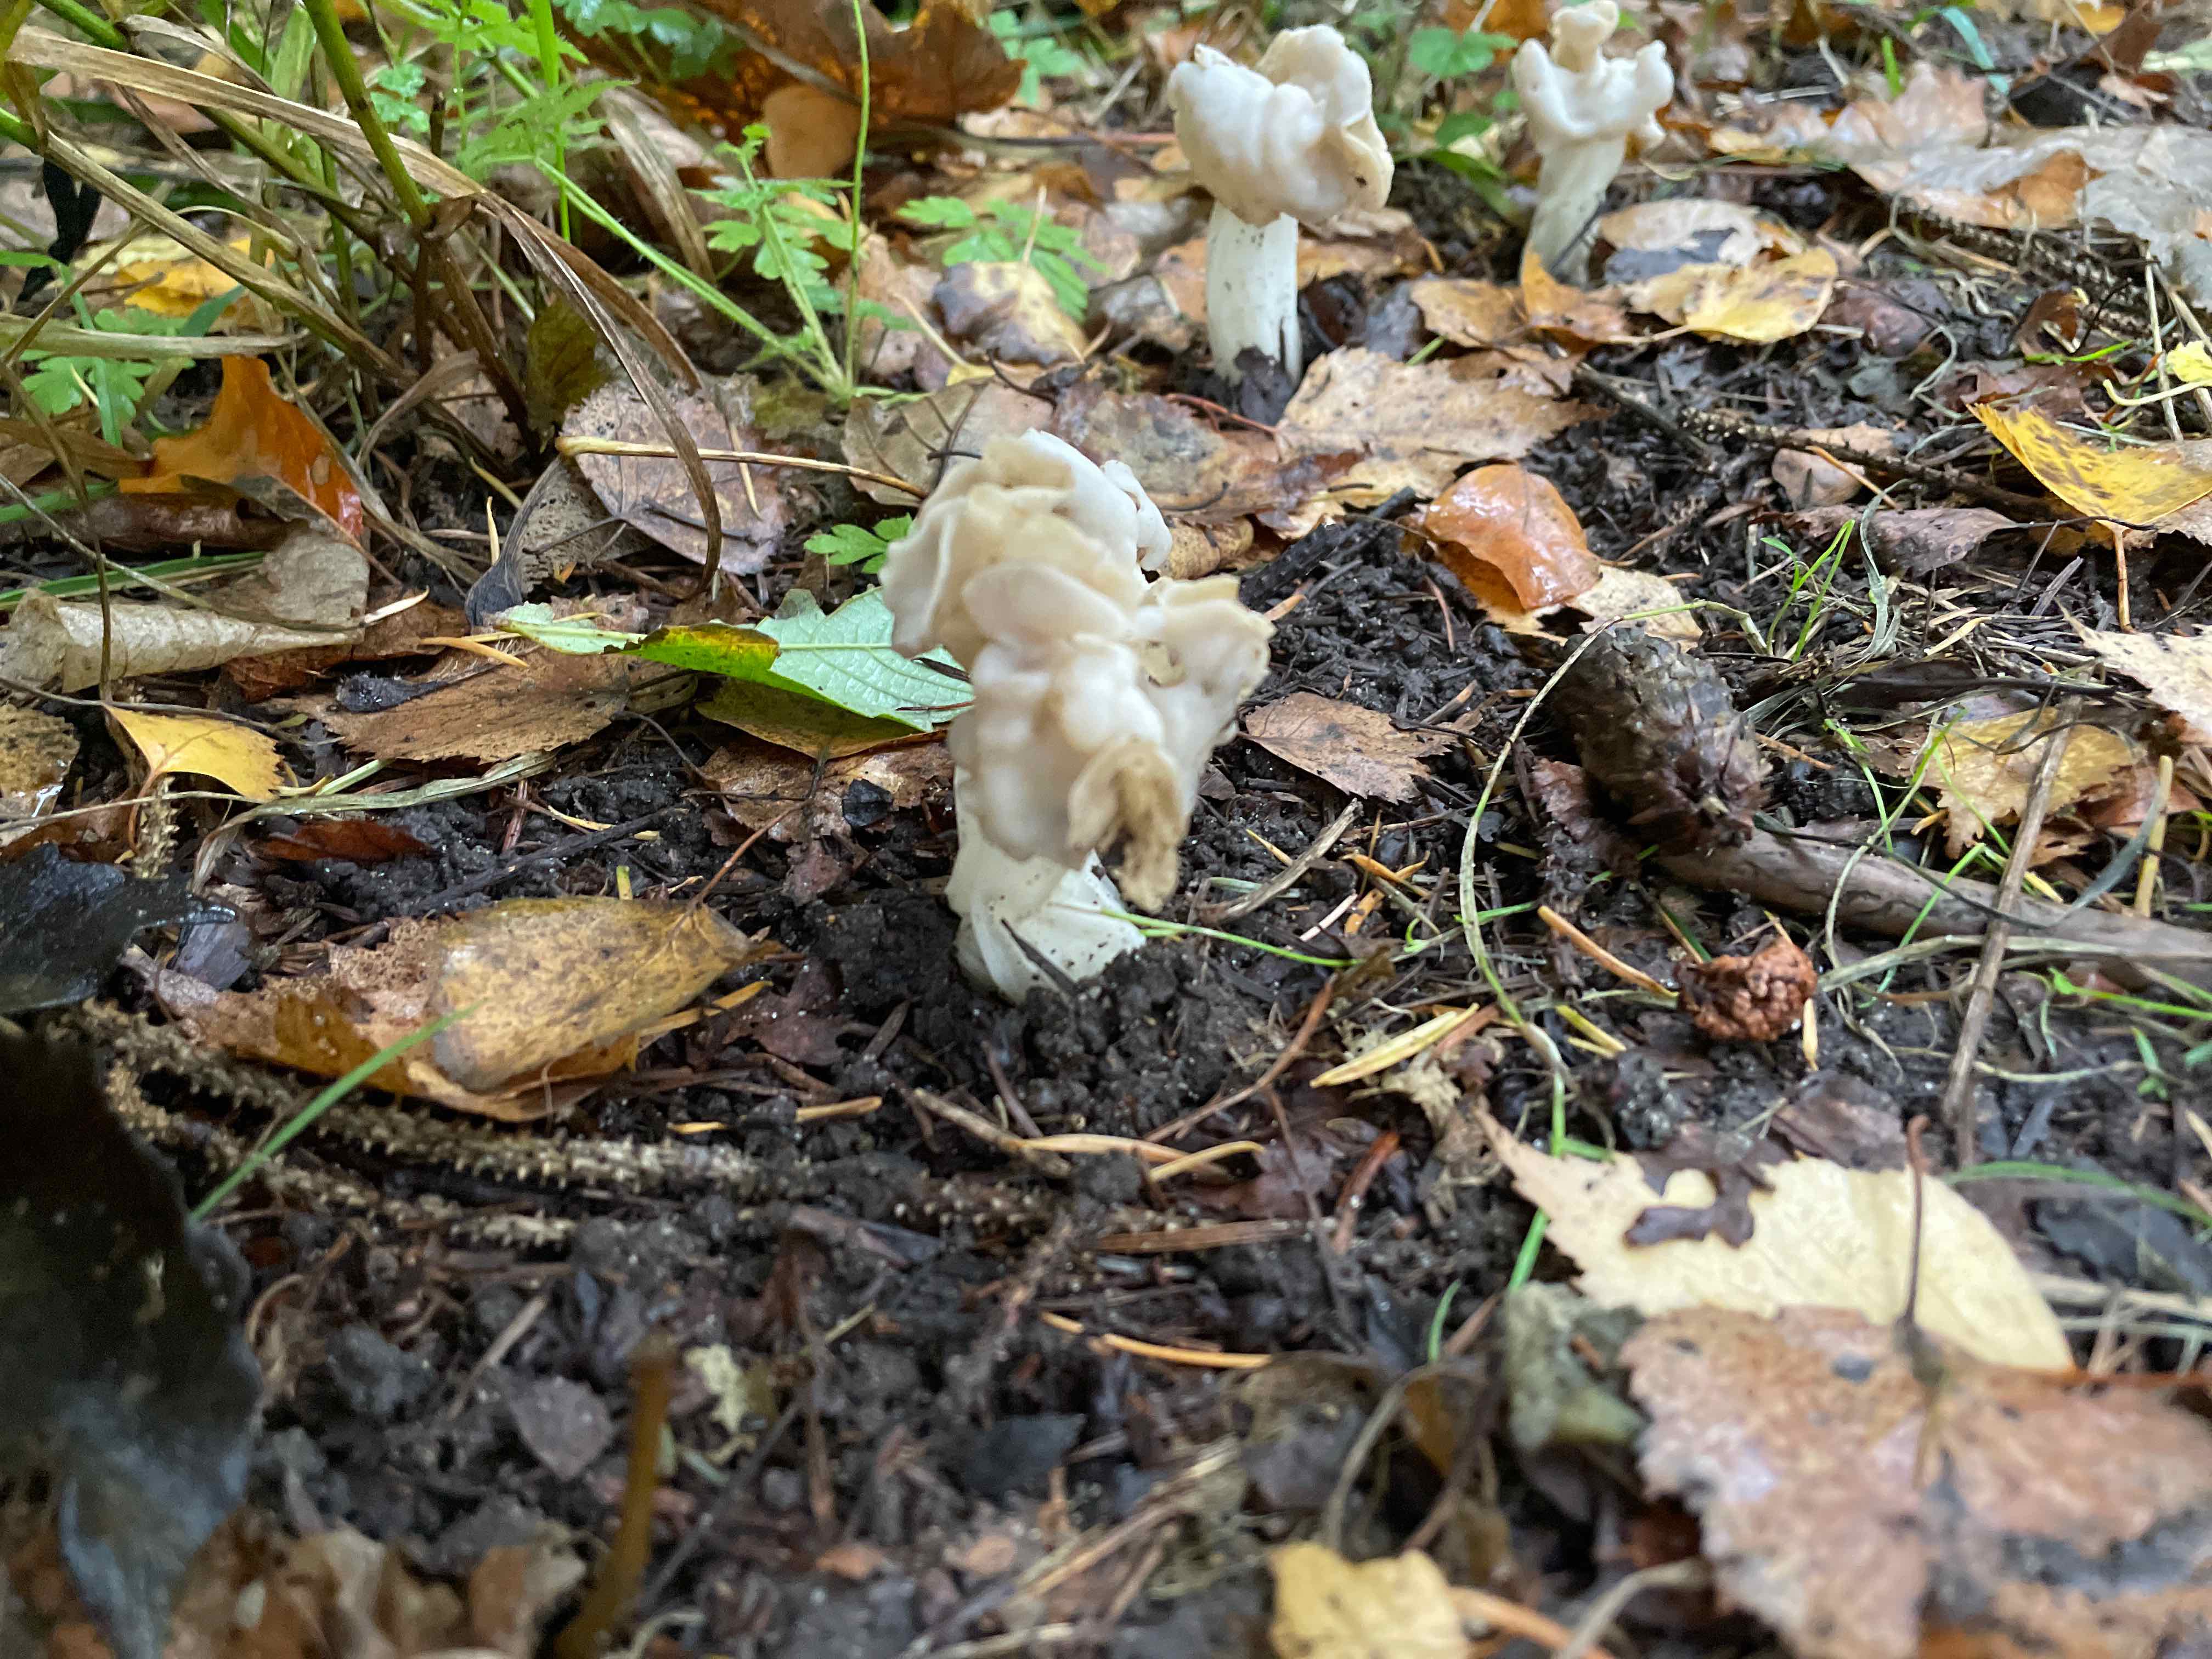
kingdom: Fungi
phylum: Ascomycota
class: Pezizomycetes
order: Pezizales
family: Helvellaceae
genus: Helvella
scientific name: Helvella crispa
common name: kruset foldhat
